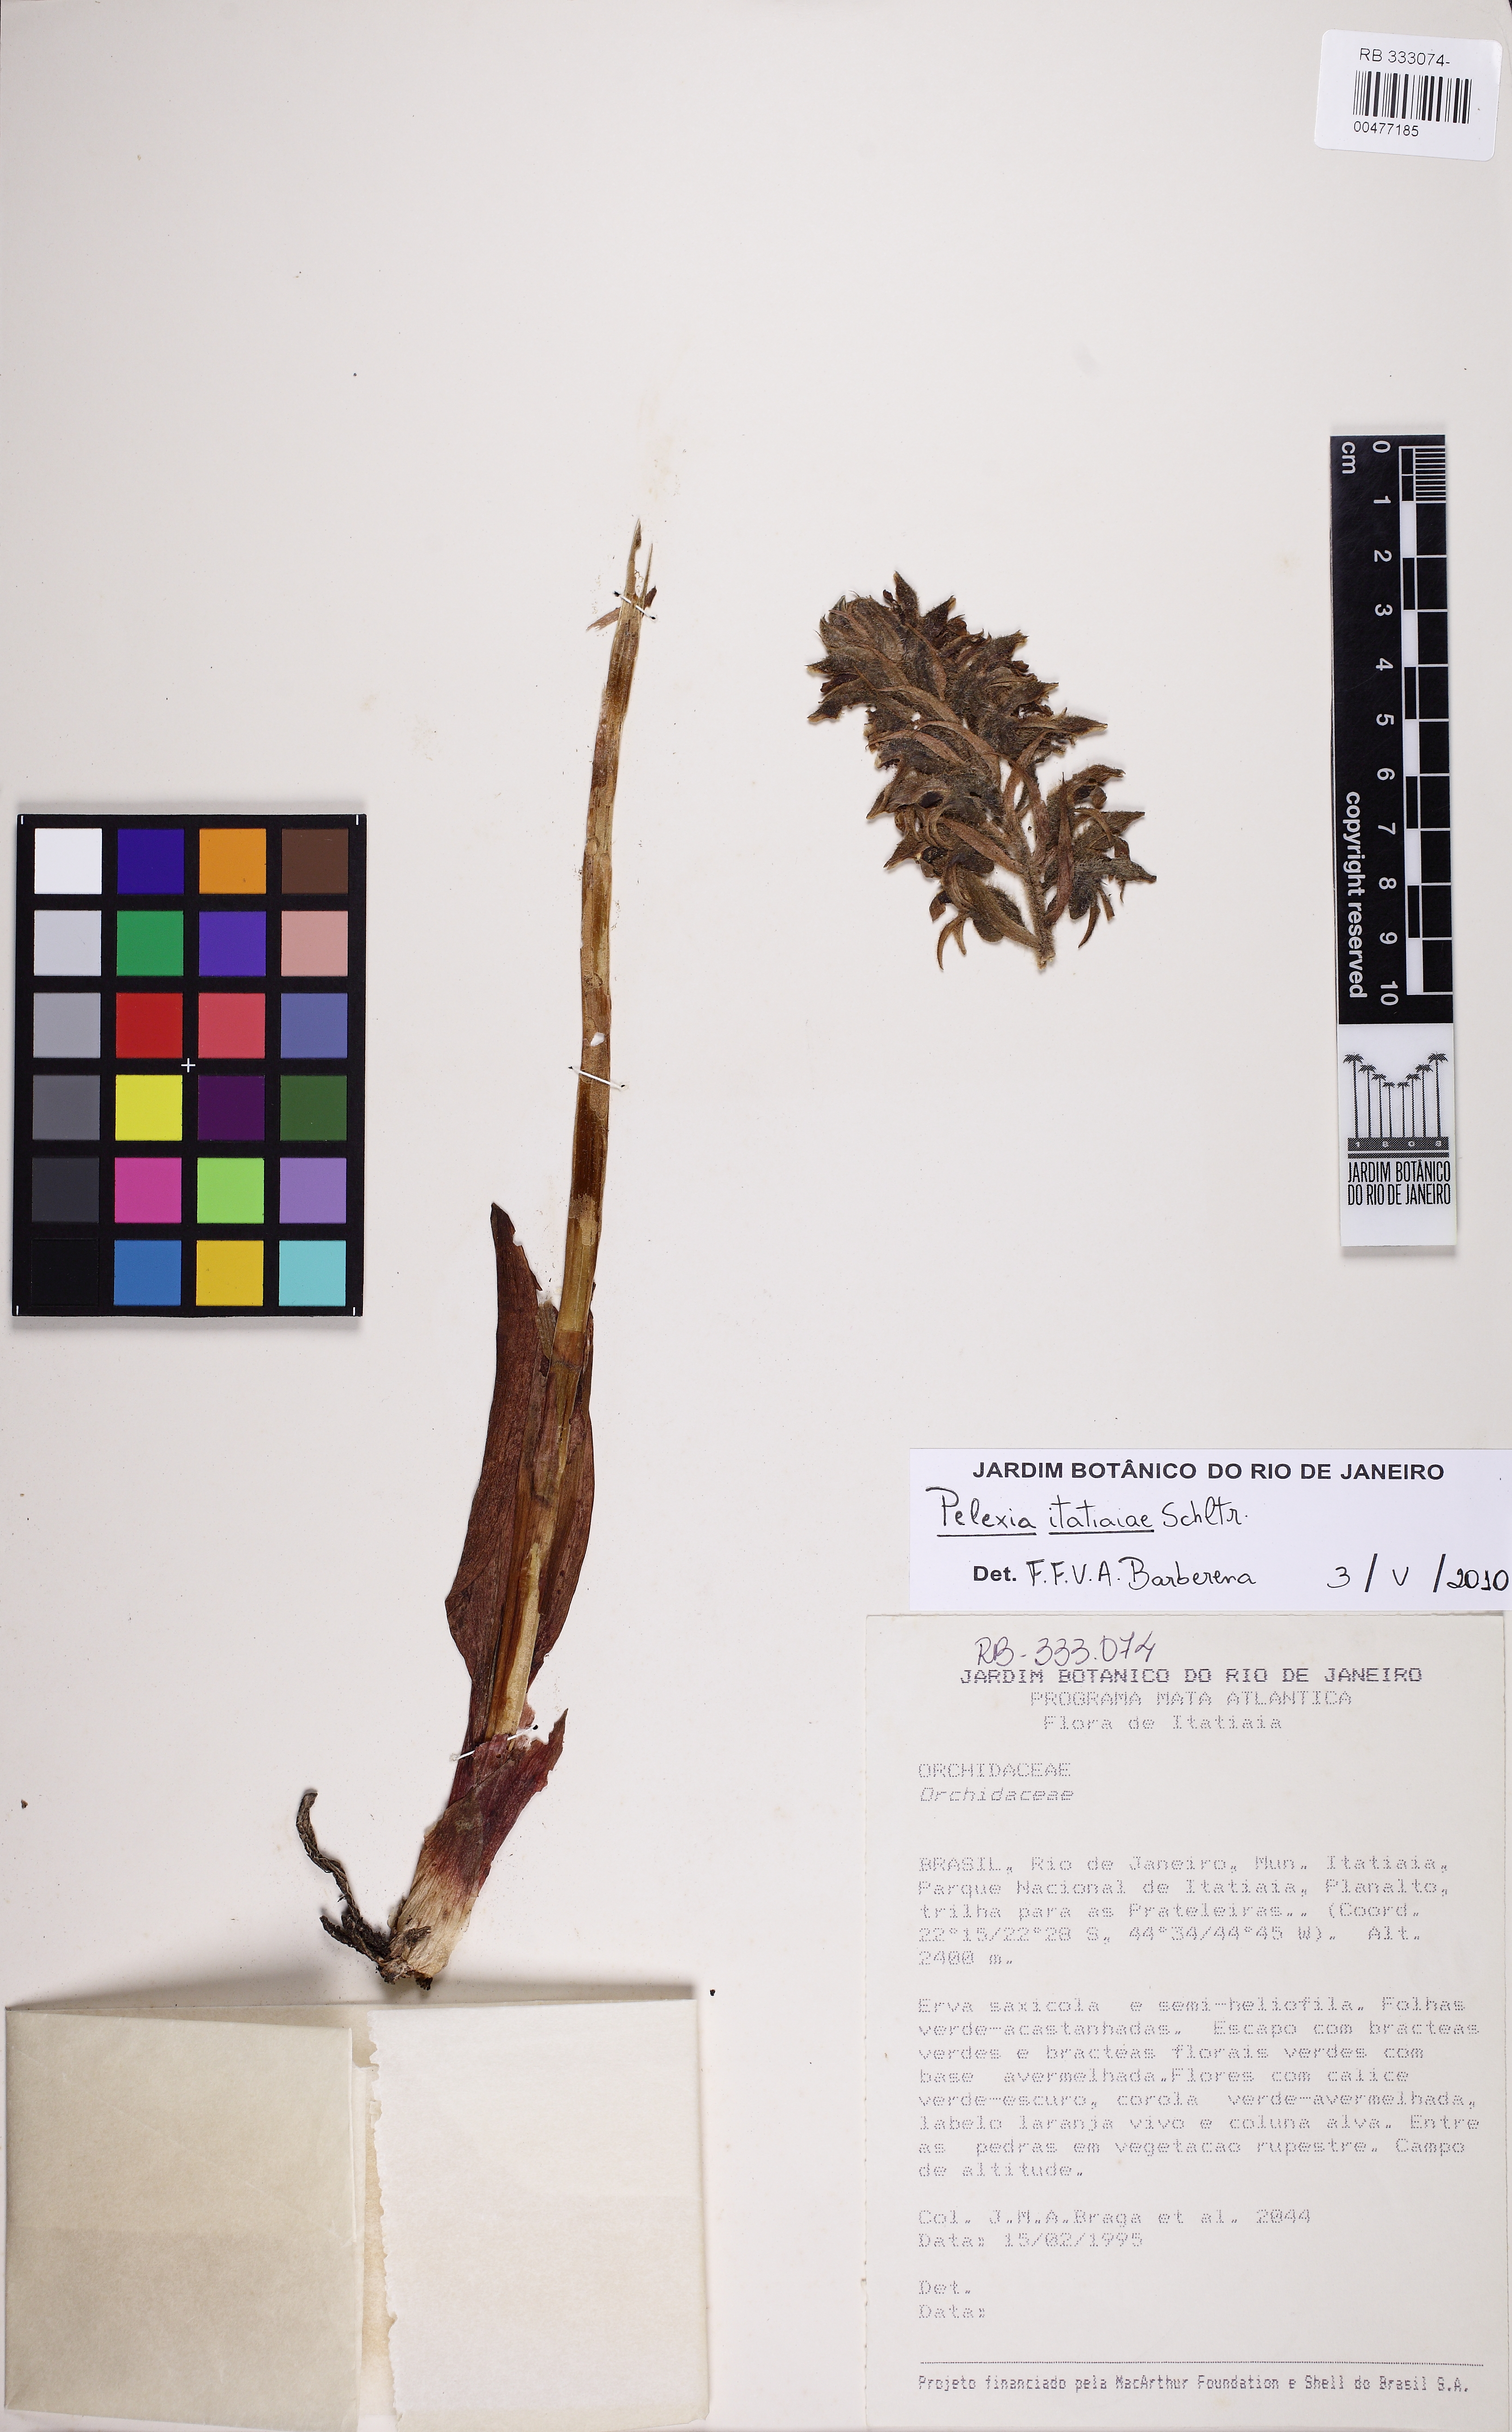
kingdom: Plantae
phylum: Tracheophyta
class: Liliopsida
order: Asparagales
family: Orchidaceae
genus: Pelexia
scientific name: Pelexia itatiayae
